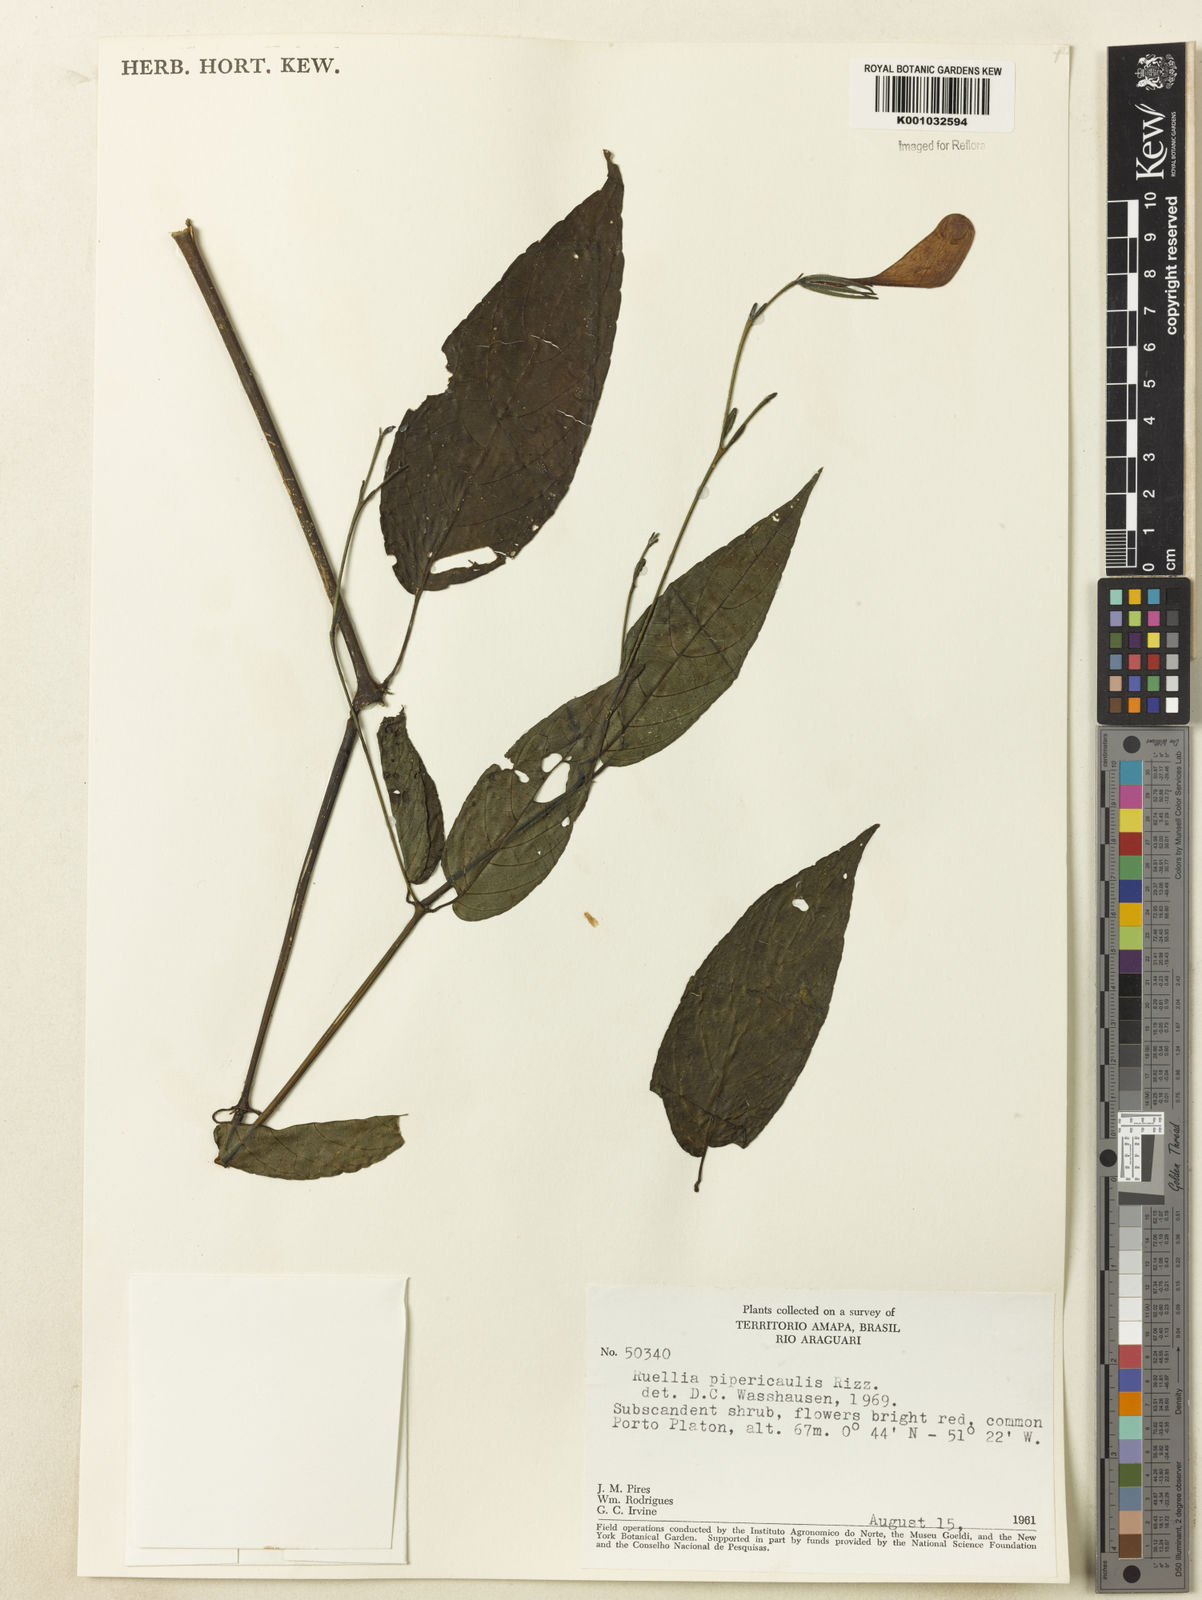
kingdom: Plantae
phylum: Tracheophyta
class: Magnoliopsida
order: Lamiales
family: Acanthaceae
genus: Ruellia
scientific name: Ruellia inflata
